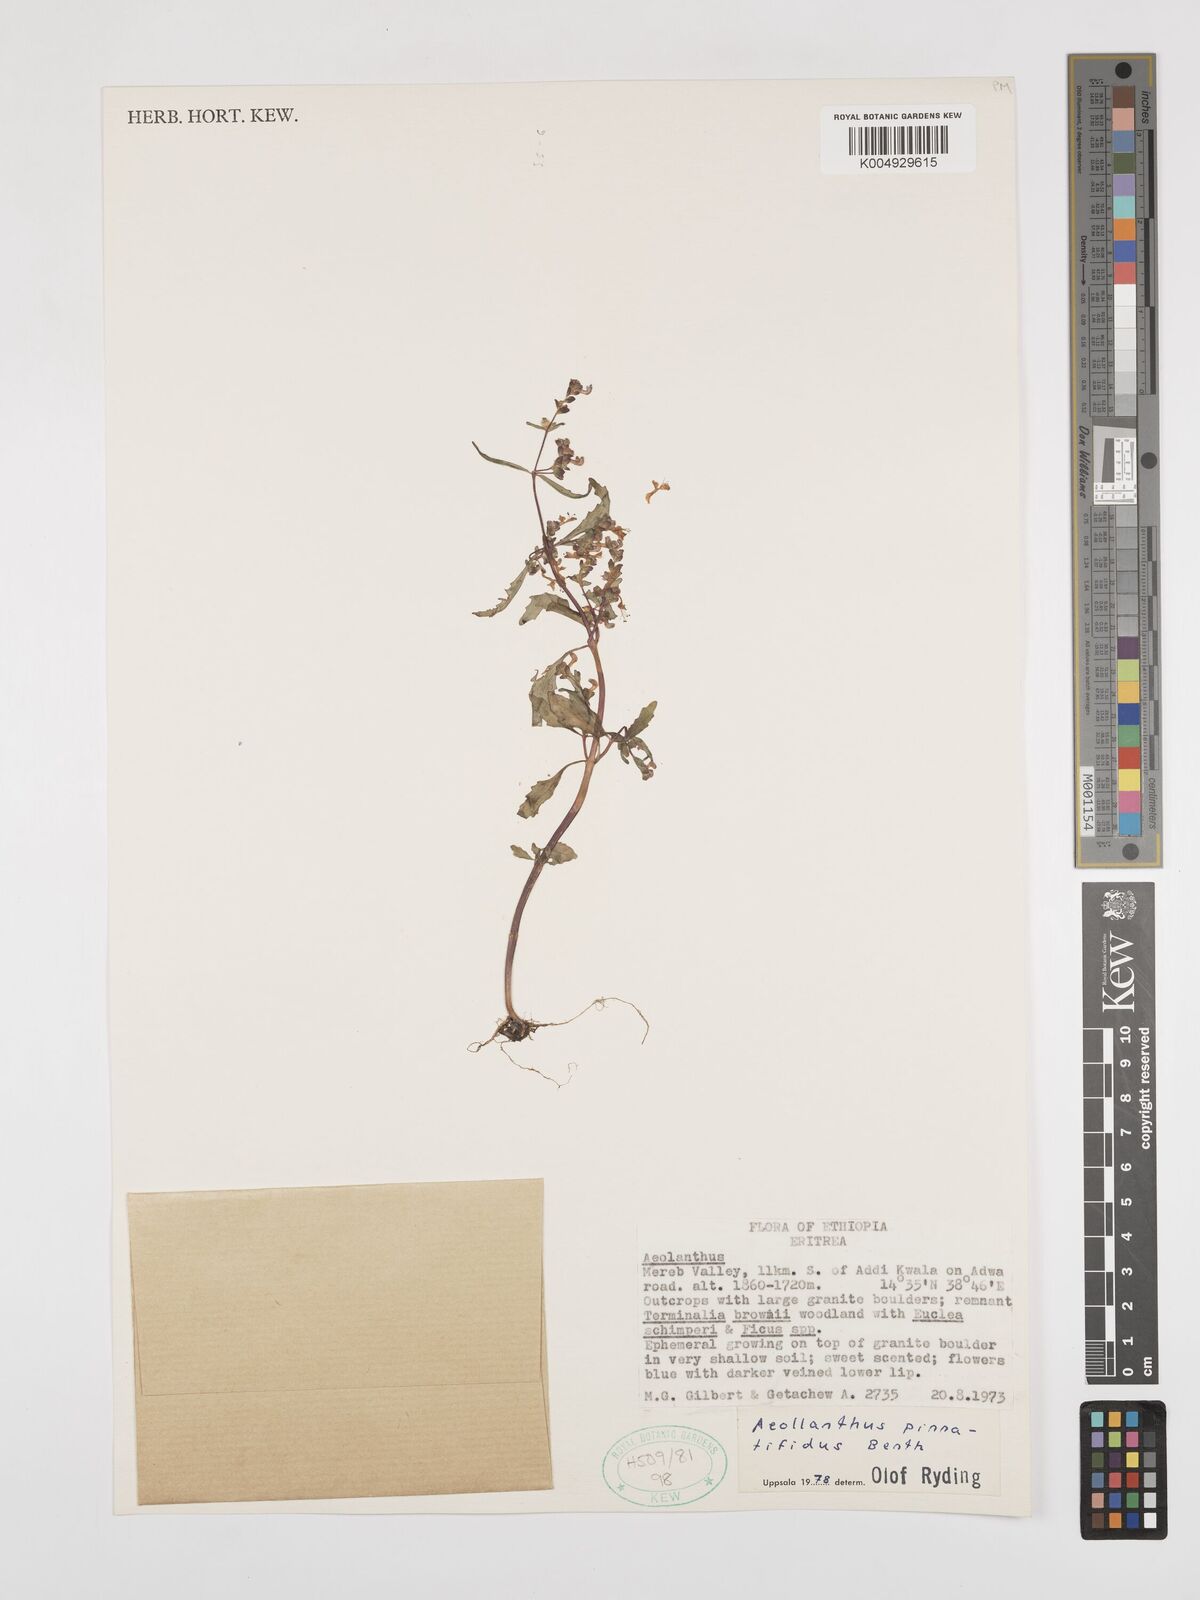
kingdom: Plantae
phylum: Tracheophyta
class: Magnoliopsida
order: Lamiales
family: Lamiaceae
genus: Aeollanthus
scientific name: Aeollanthus pinnatifidus
